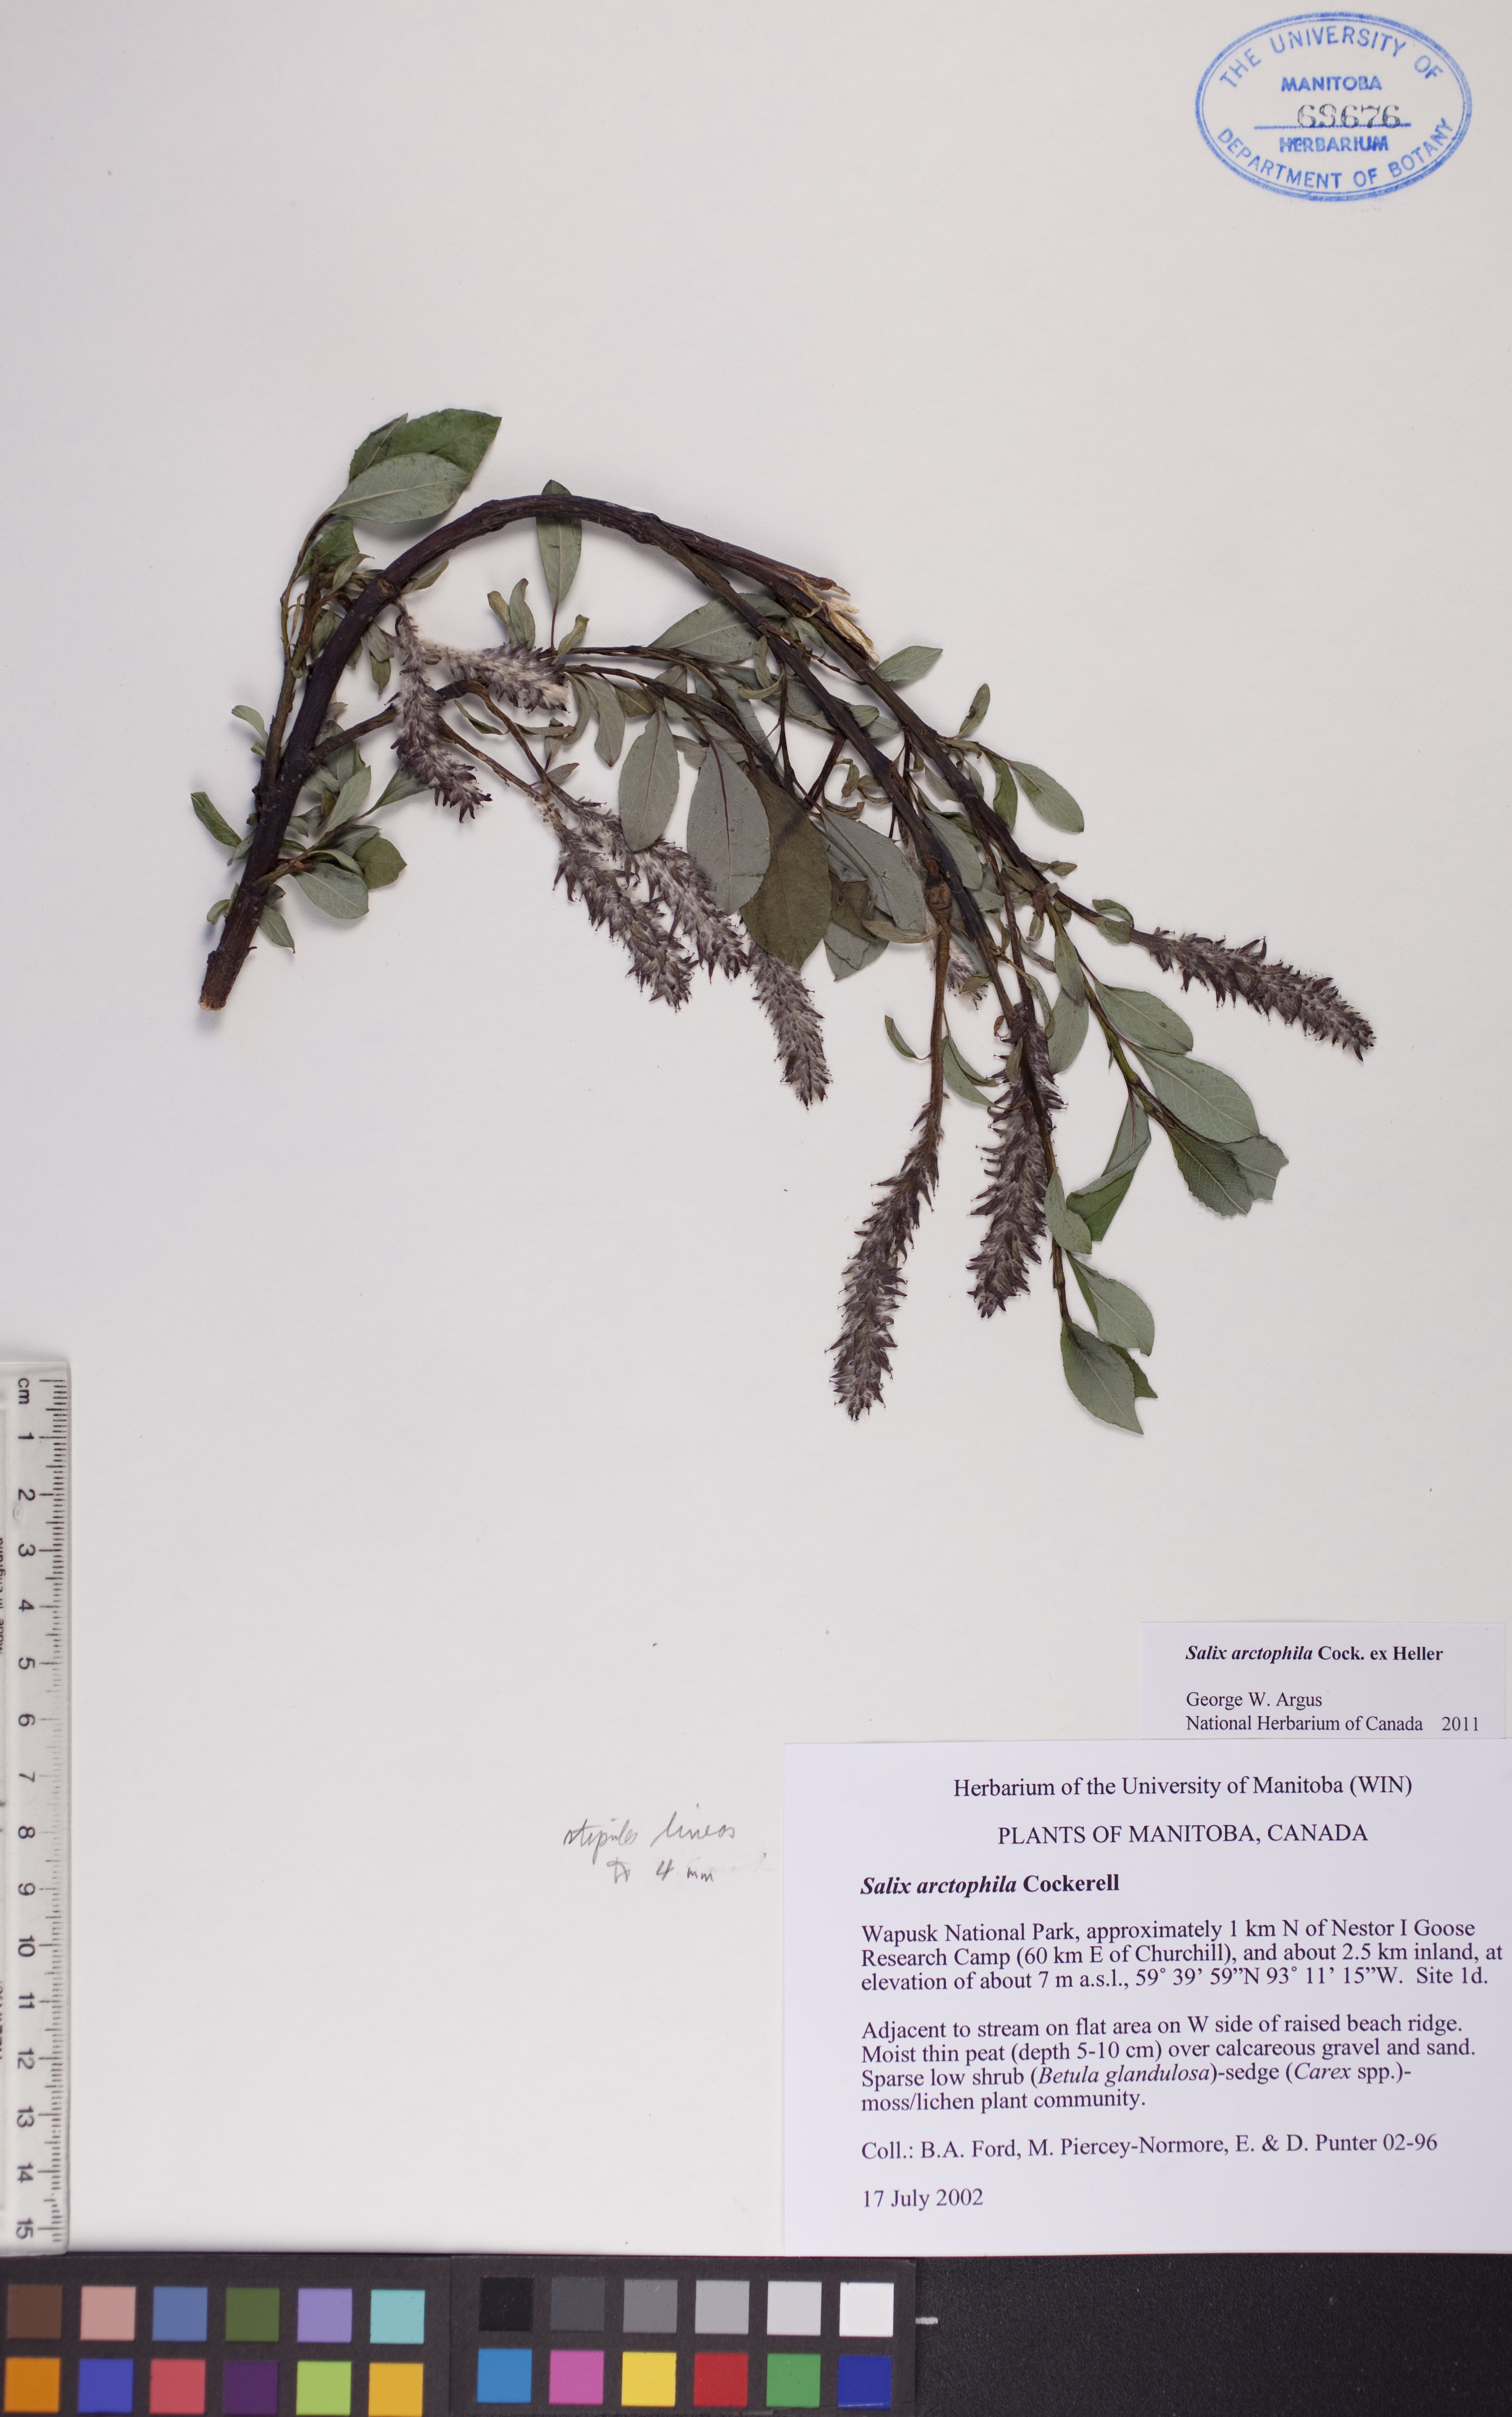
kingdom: Plantae
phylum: Tracheophyta
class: Magnoliopsida
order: Malpighiales
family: Salicaceae
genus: Salix
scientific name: Salix arctophila
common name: Greenland willow
